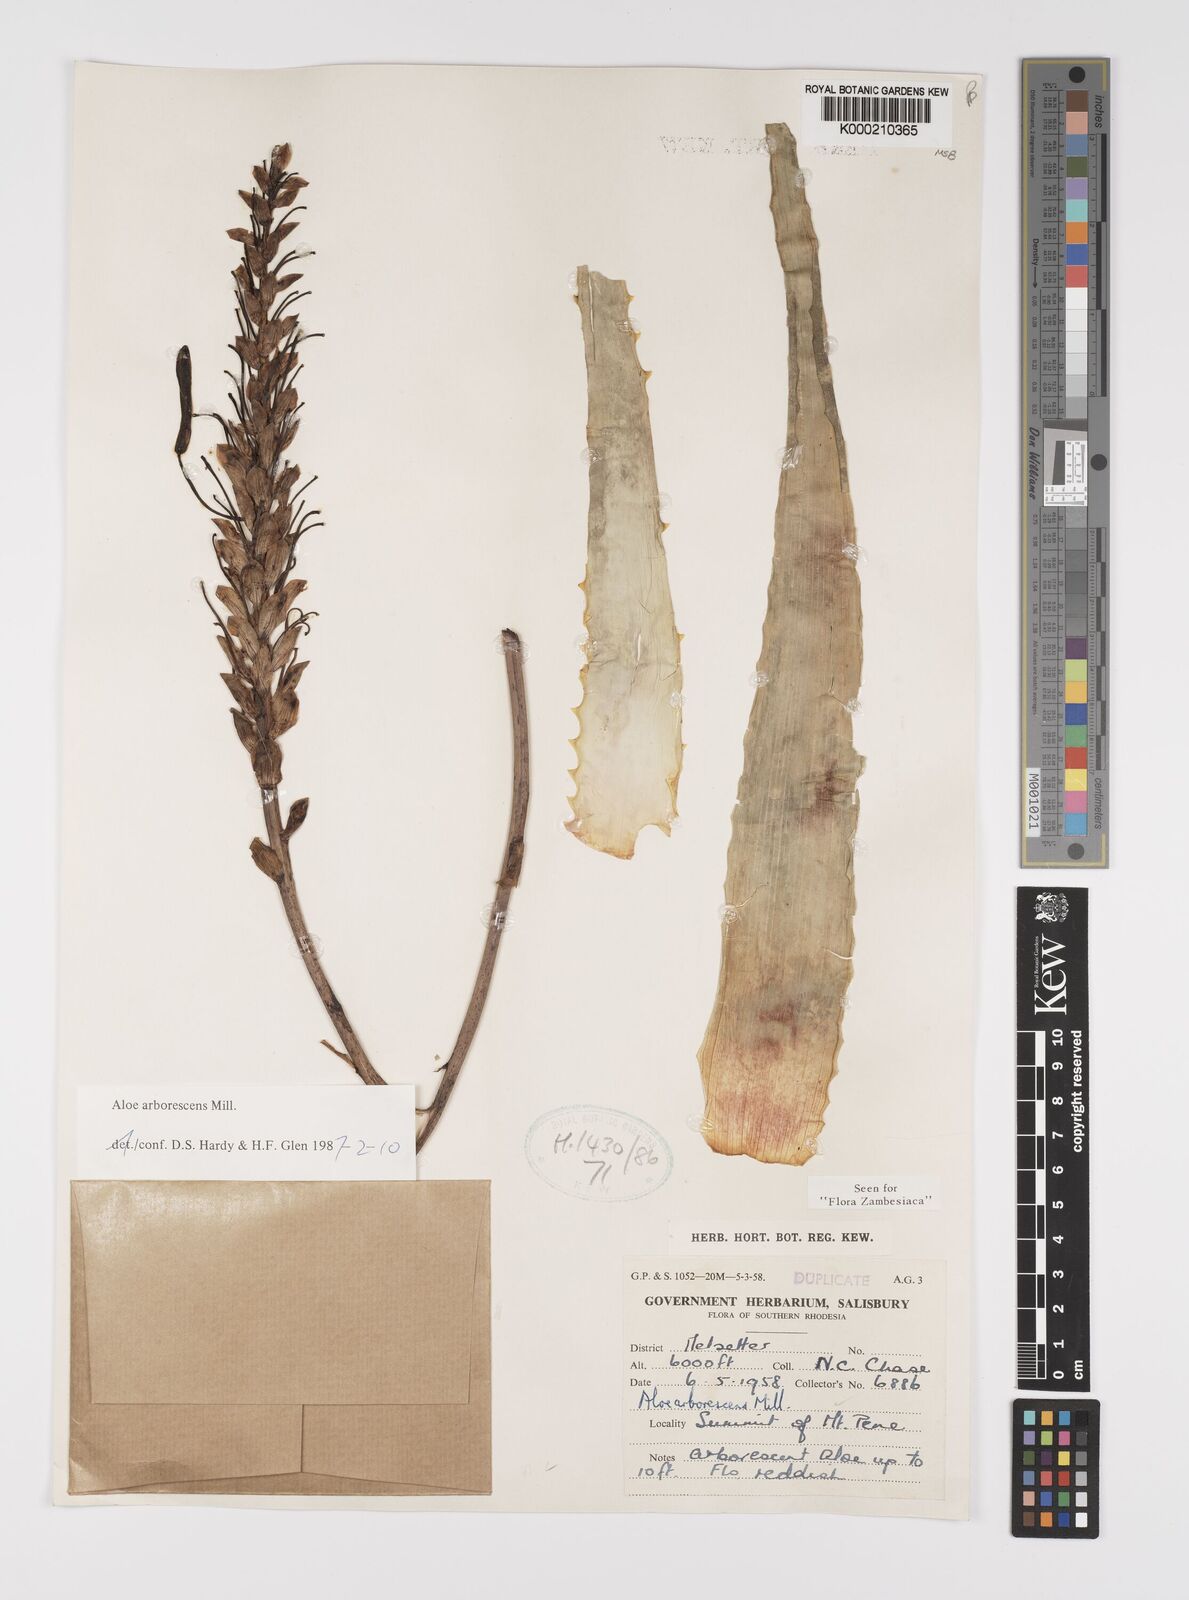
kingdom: Plantae
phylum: Tracheophyta
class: Liliopsida
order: Asparagales
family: Asphodelaceae
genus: Aloe
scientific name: Aloe arborescens
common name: Candelabra aloe
